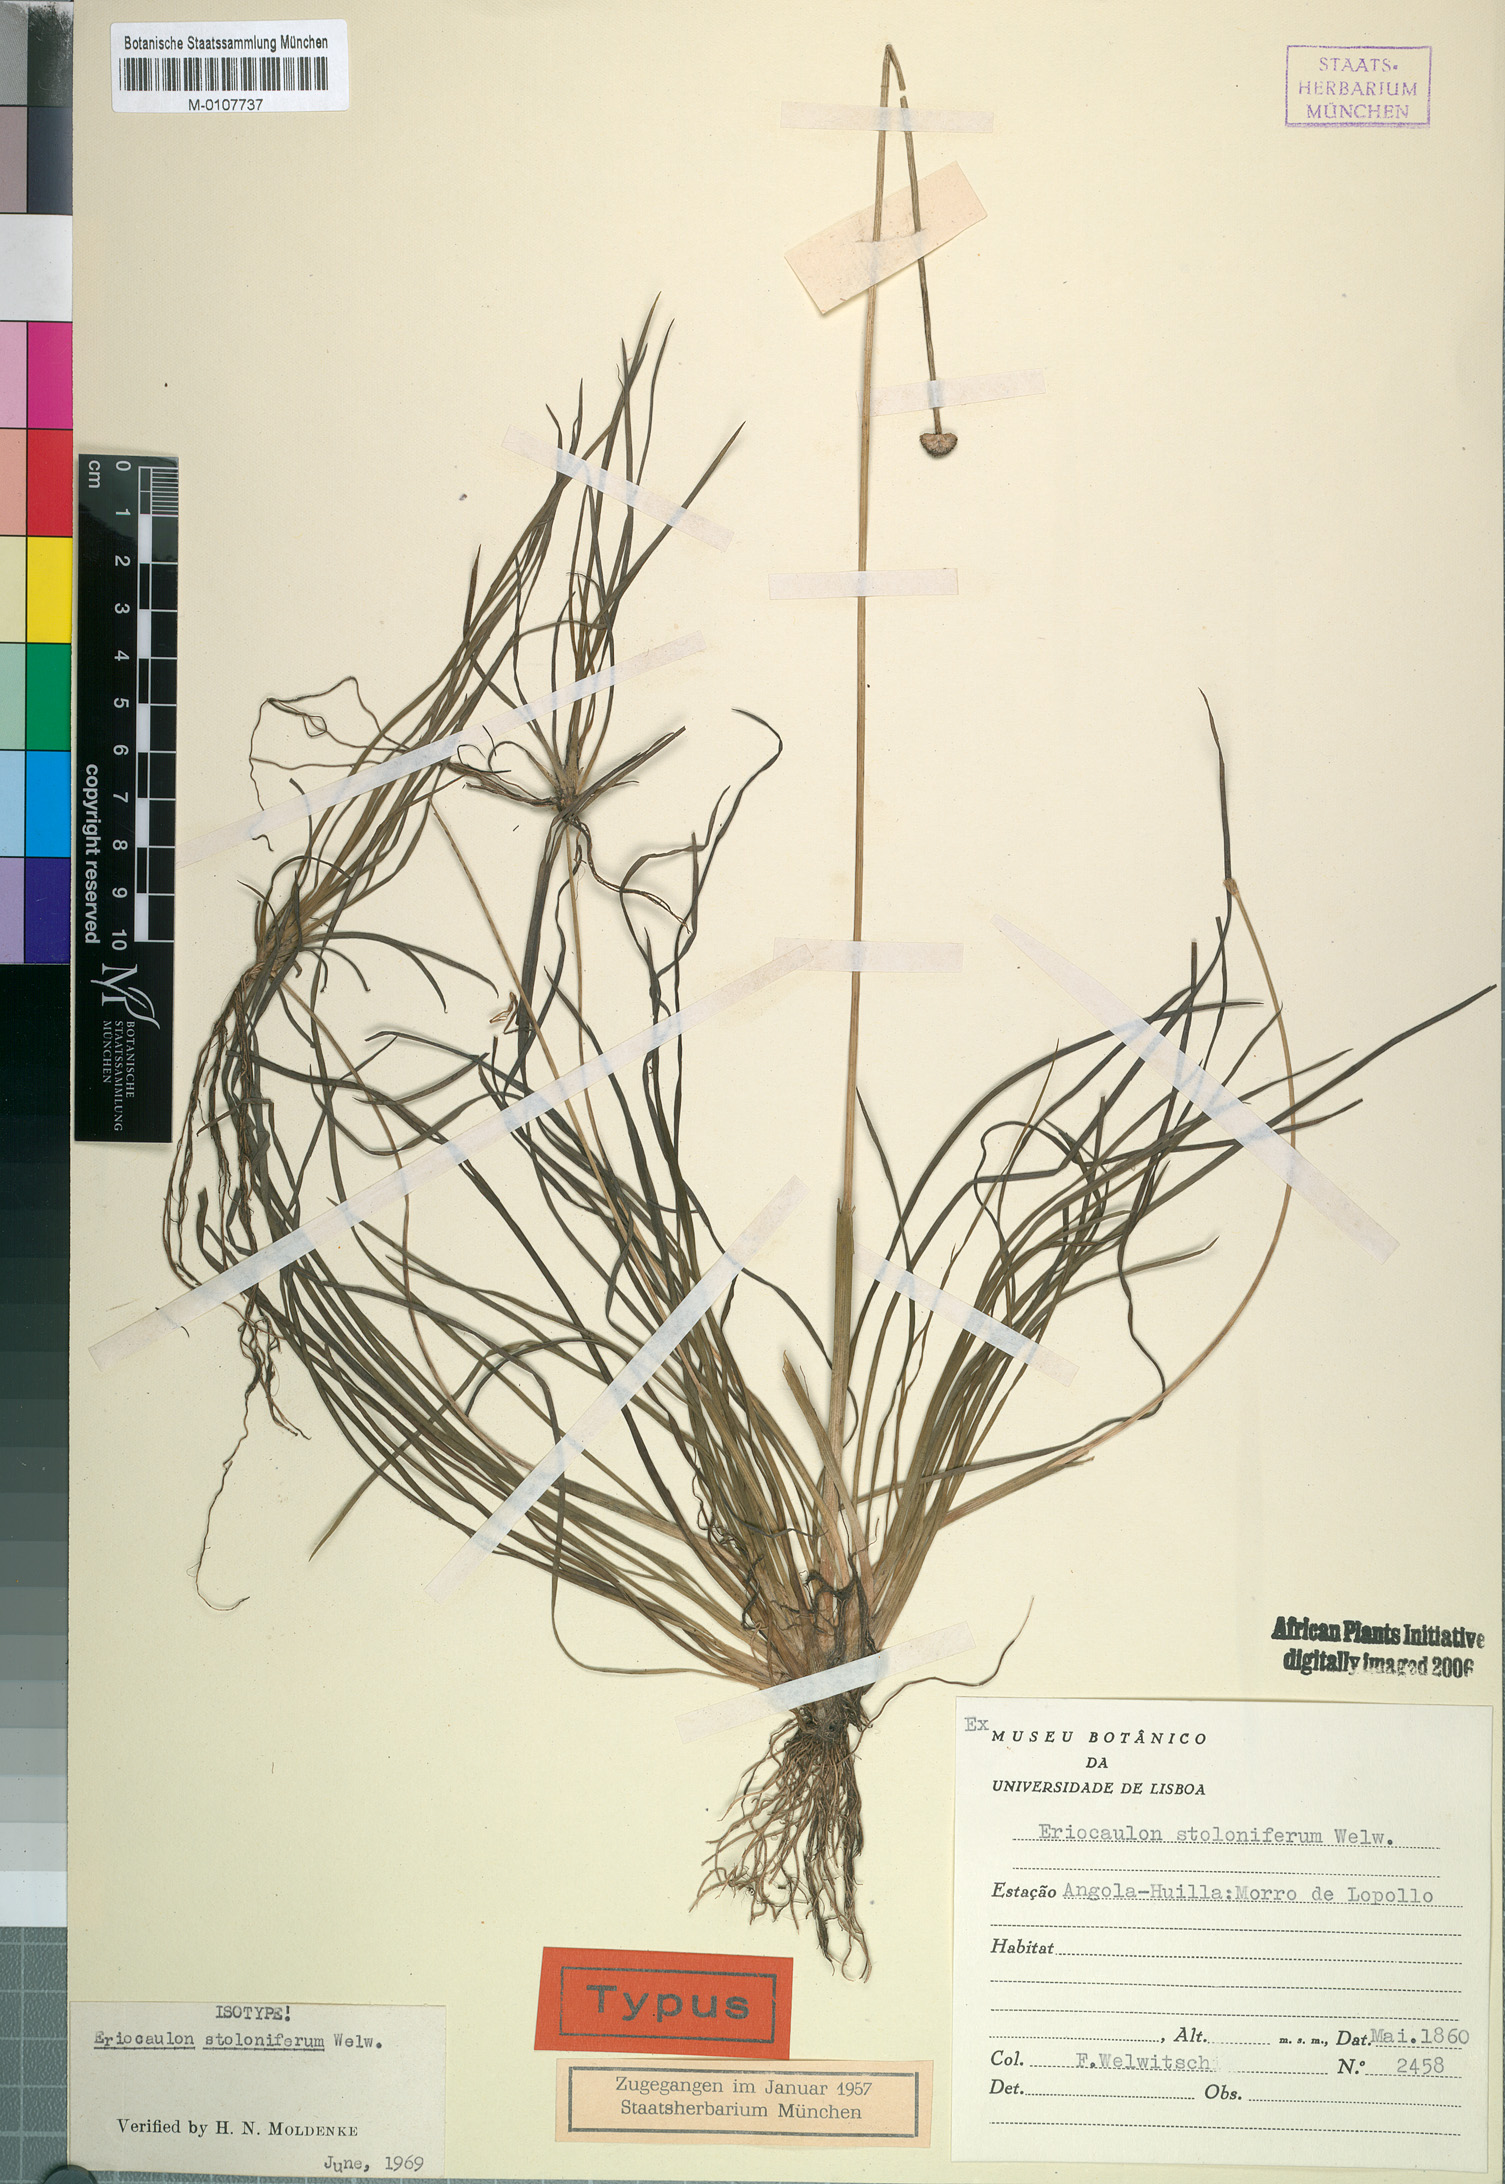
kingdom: Plantae
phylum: Tracheophyta
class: Liliopsida
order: Poales
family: Eriocaulaceae
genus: Eriocaulon
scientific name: Eriocaulon africanum
